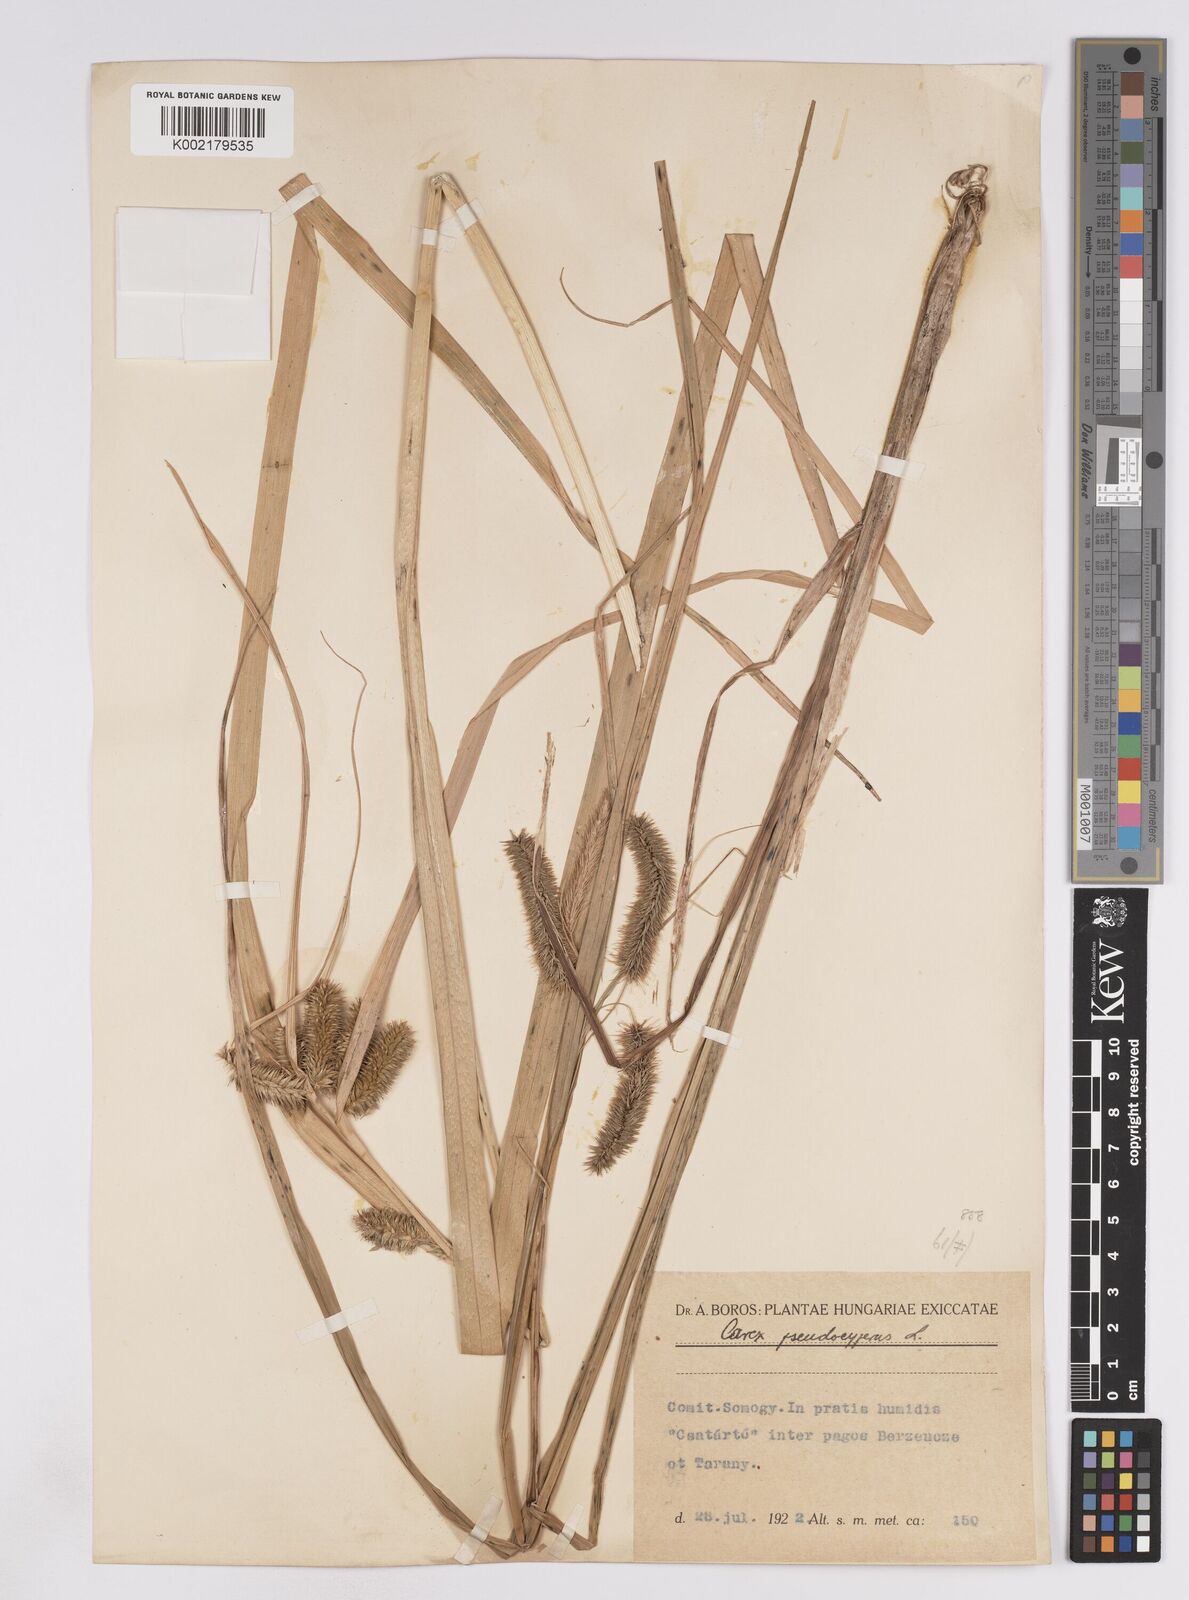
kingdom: Plantae
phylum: Tracheophyta
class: Liliopsida
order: Poales
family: Cyperaceae
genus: Carex
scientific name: Carex pseudocyperus
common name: Cyperus sedge
